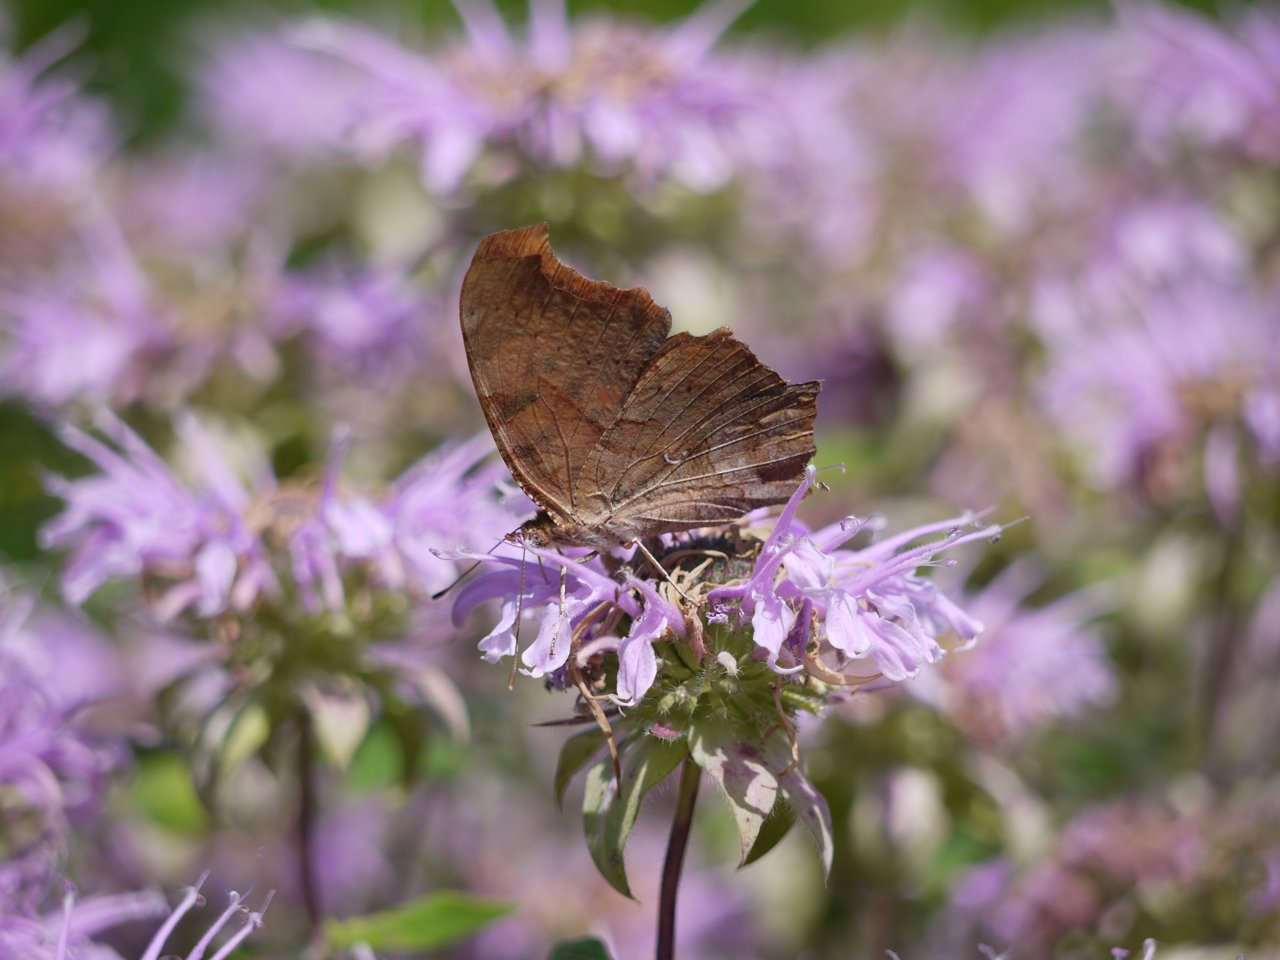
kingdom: Animalia
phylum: Arthropoda
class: Insecta
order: Lepidoptera
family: Nymphalidae
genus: Polygonia
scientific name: Polygonia interrogationis
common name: Question Mark
